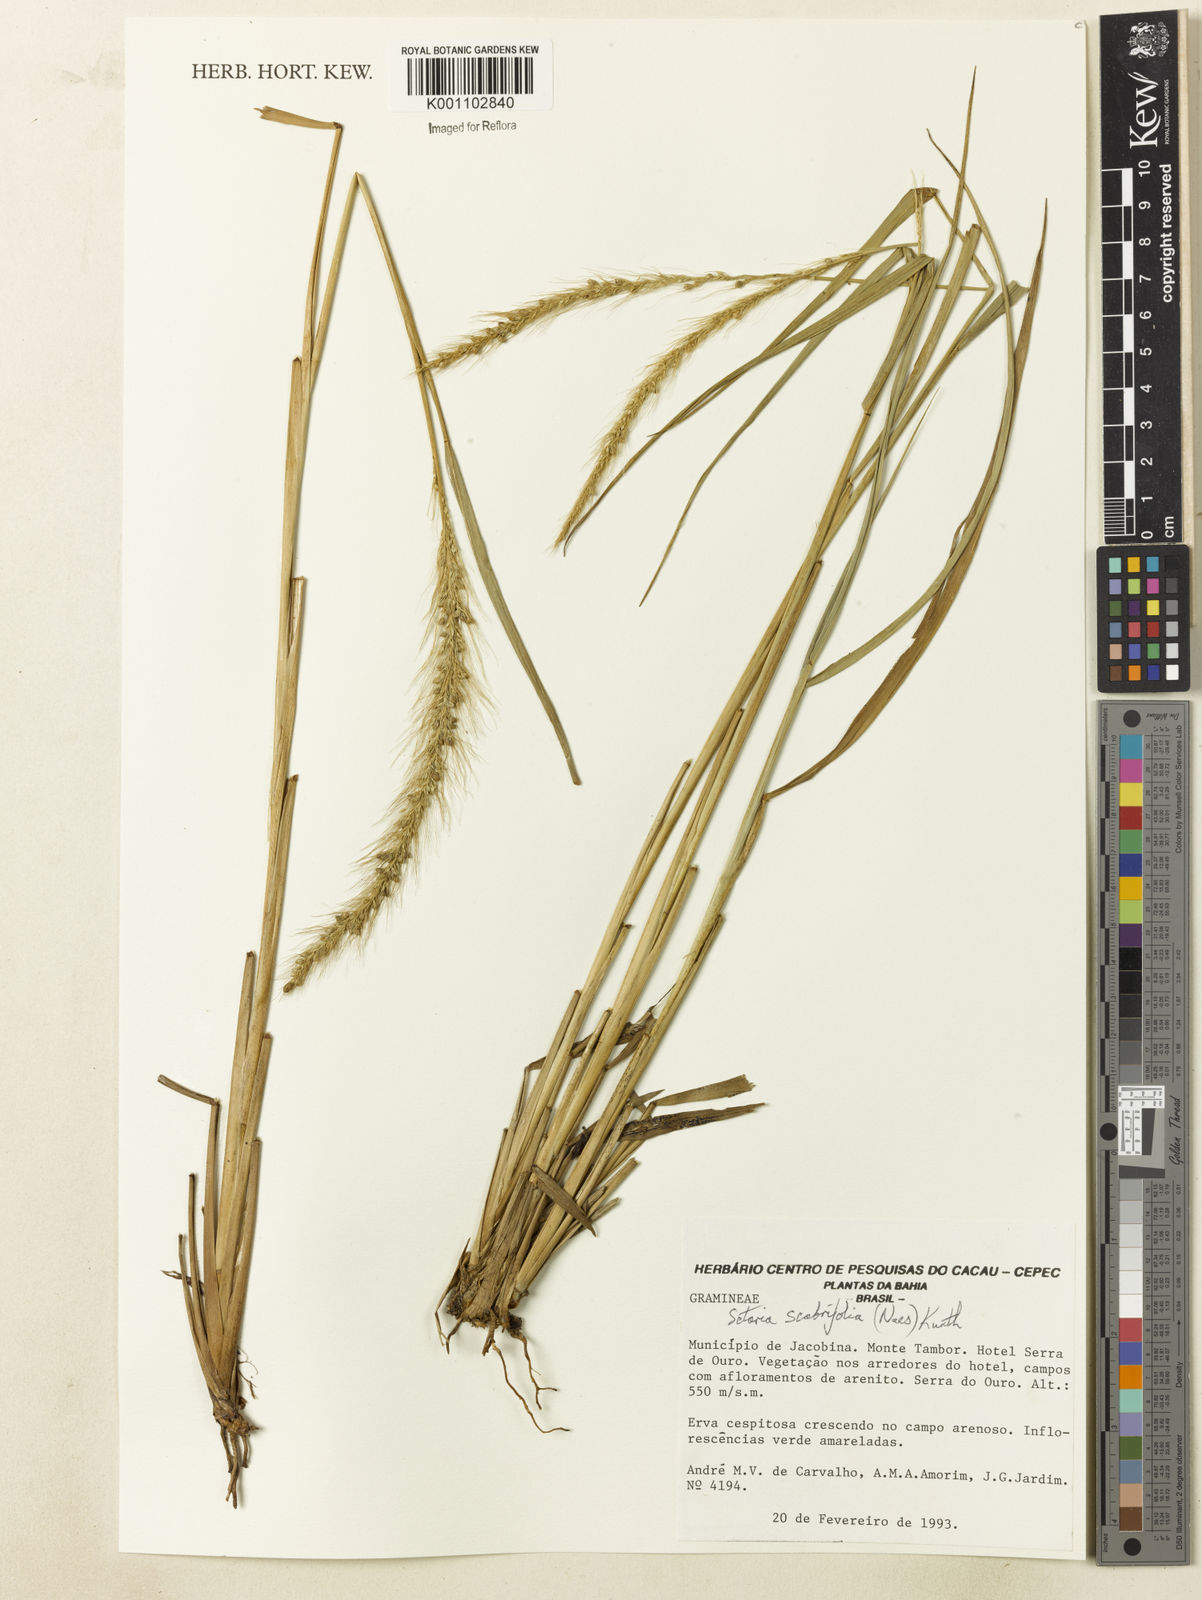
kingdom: Plantae
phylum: Tracheophyta
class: Liliopsida
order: Poales
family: Poaceae
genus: Setaria
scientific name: Setaria scabrifolia
